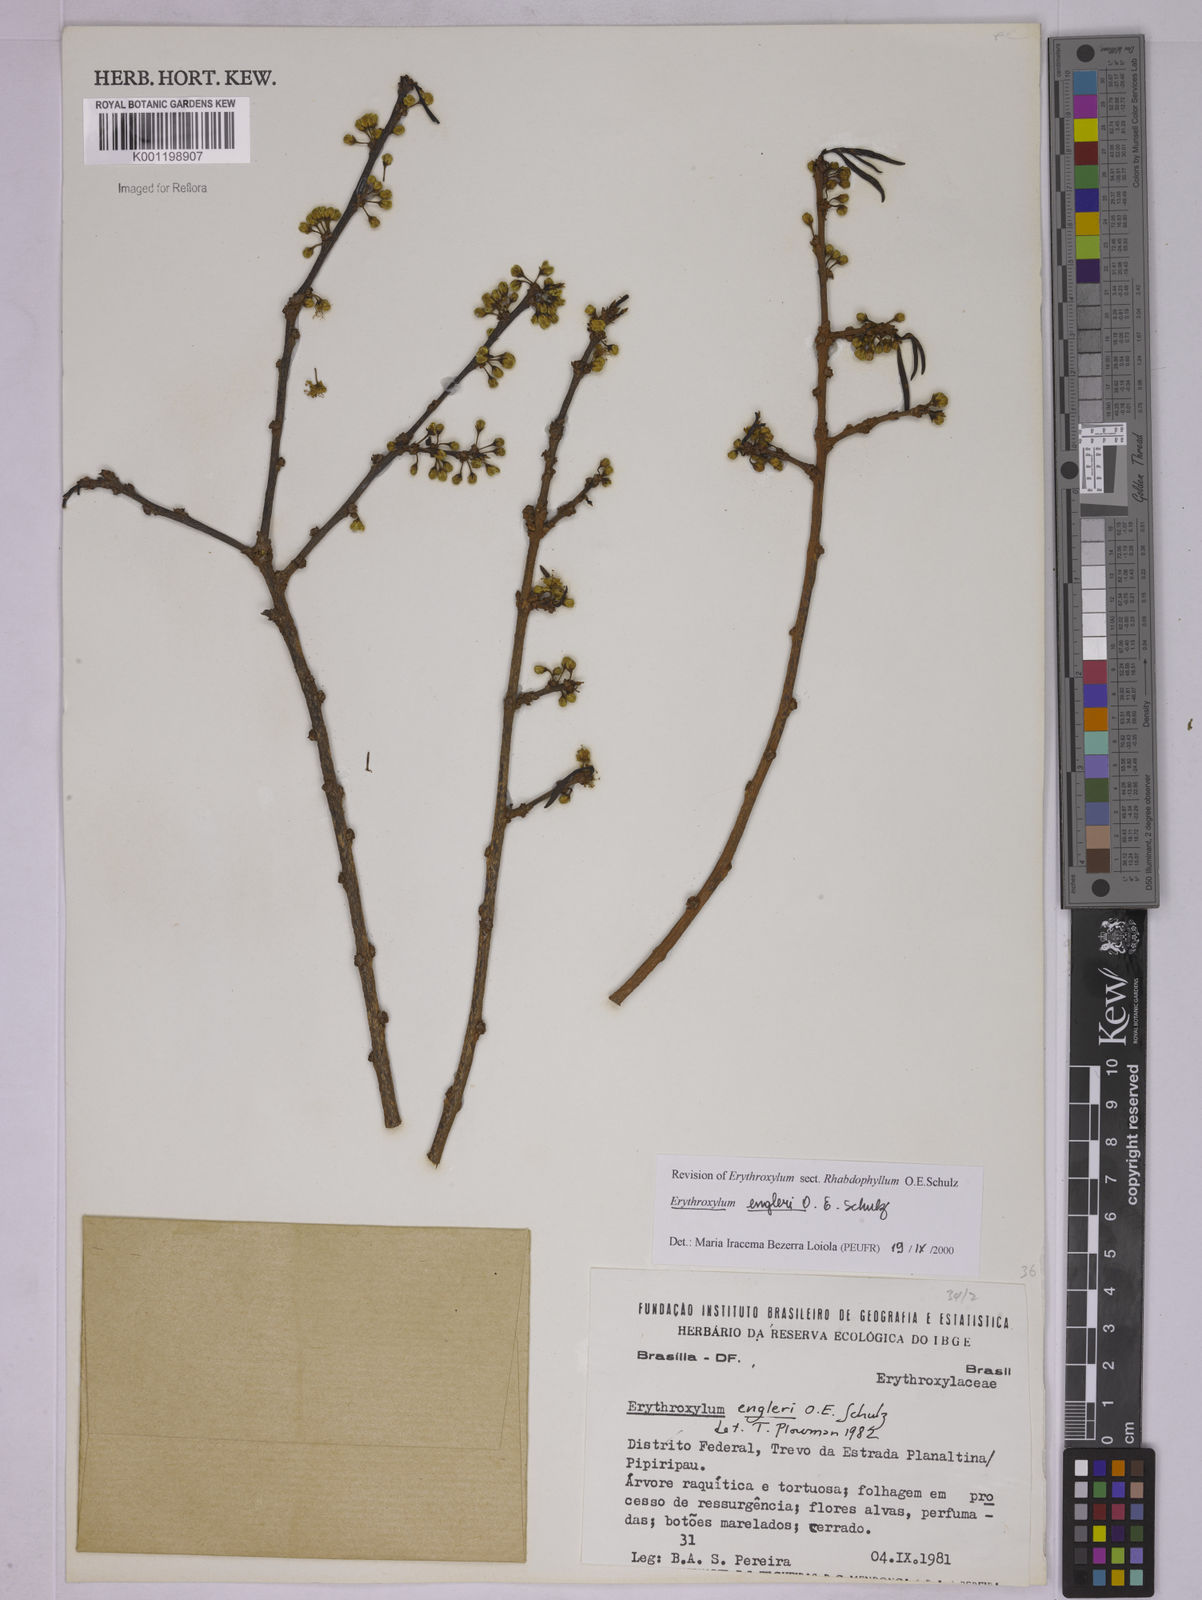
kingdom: Plantae
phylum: Tracheophyta
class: Magnoliopsida
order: Malpighiales
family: Erythroxylaceae
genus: Erythroxylum
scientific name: Erythroxylum engleri
